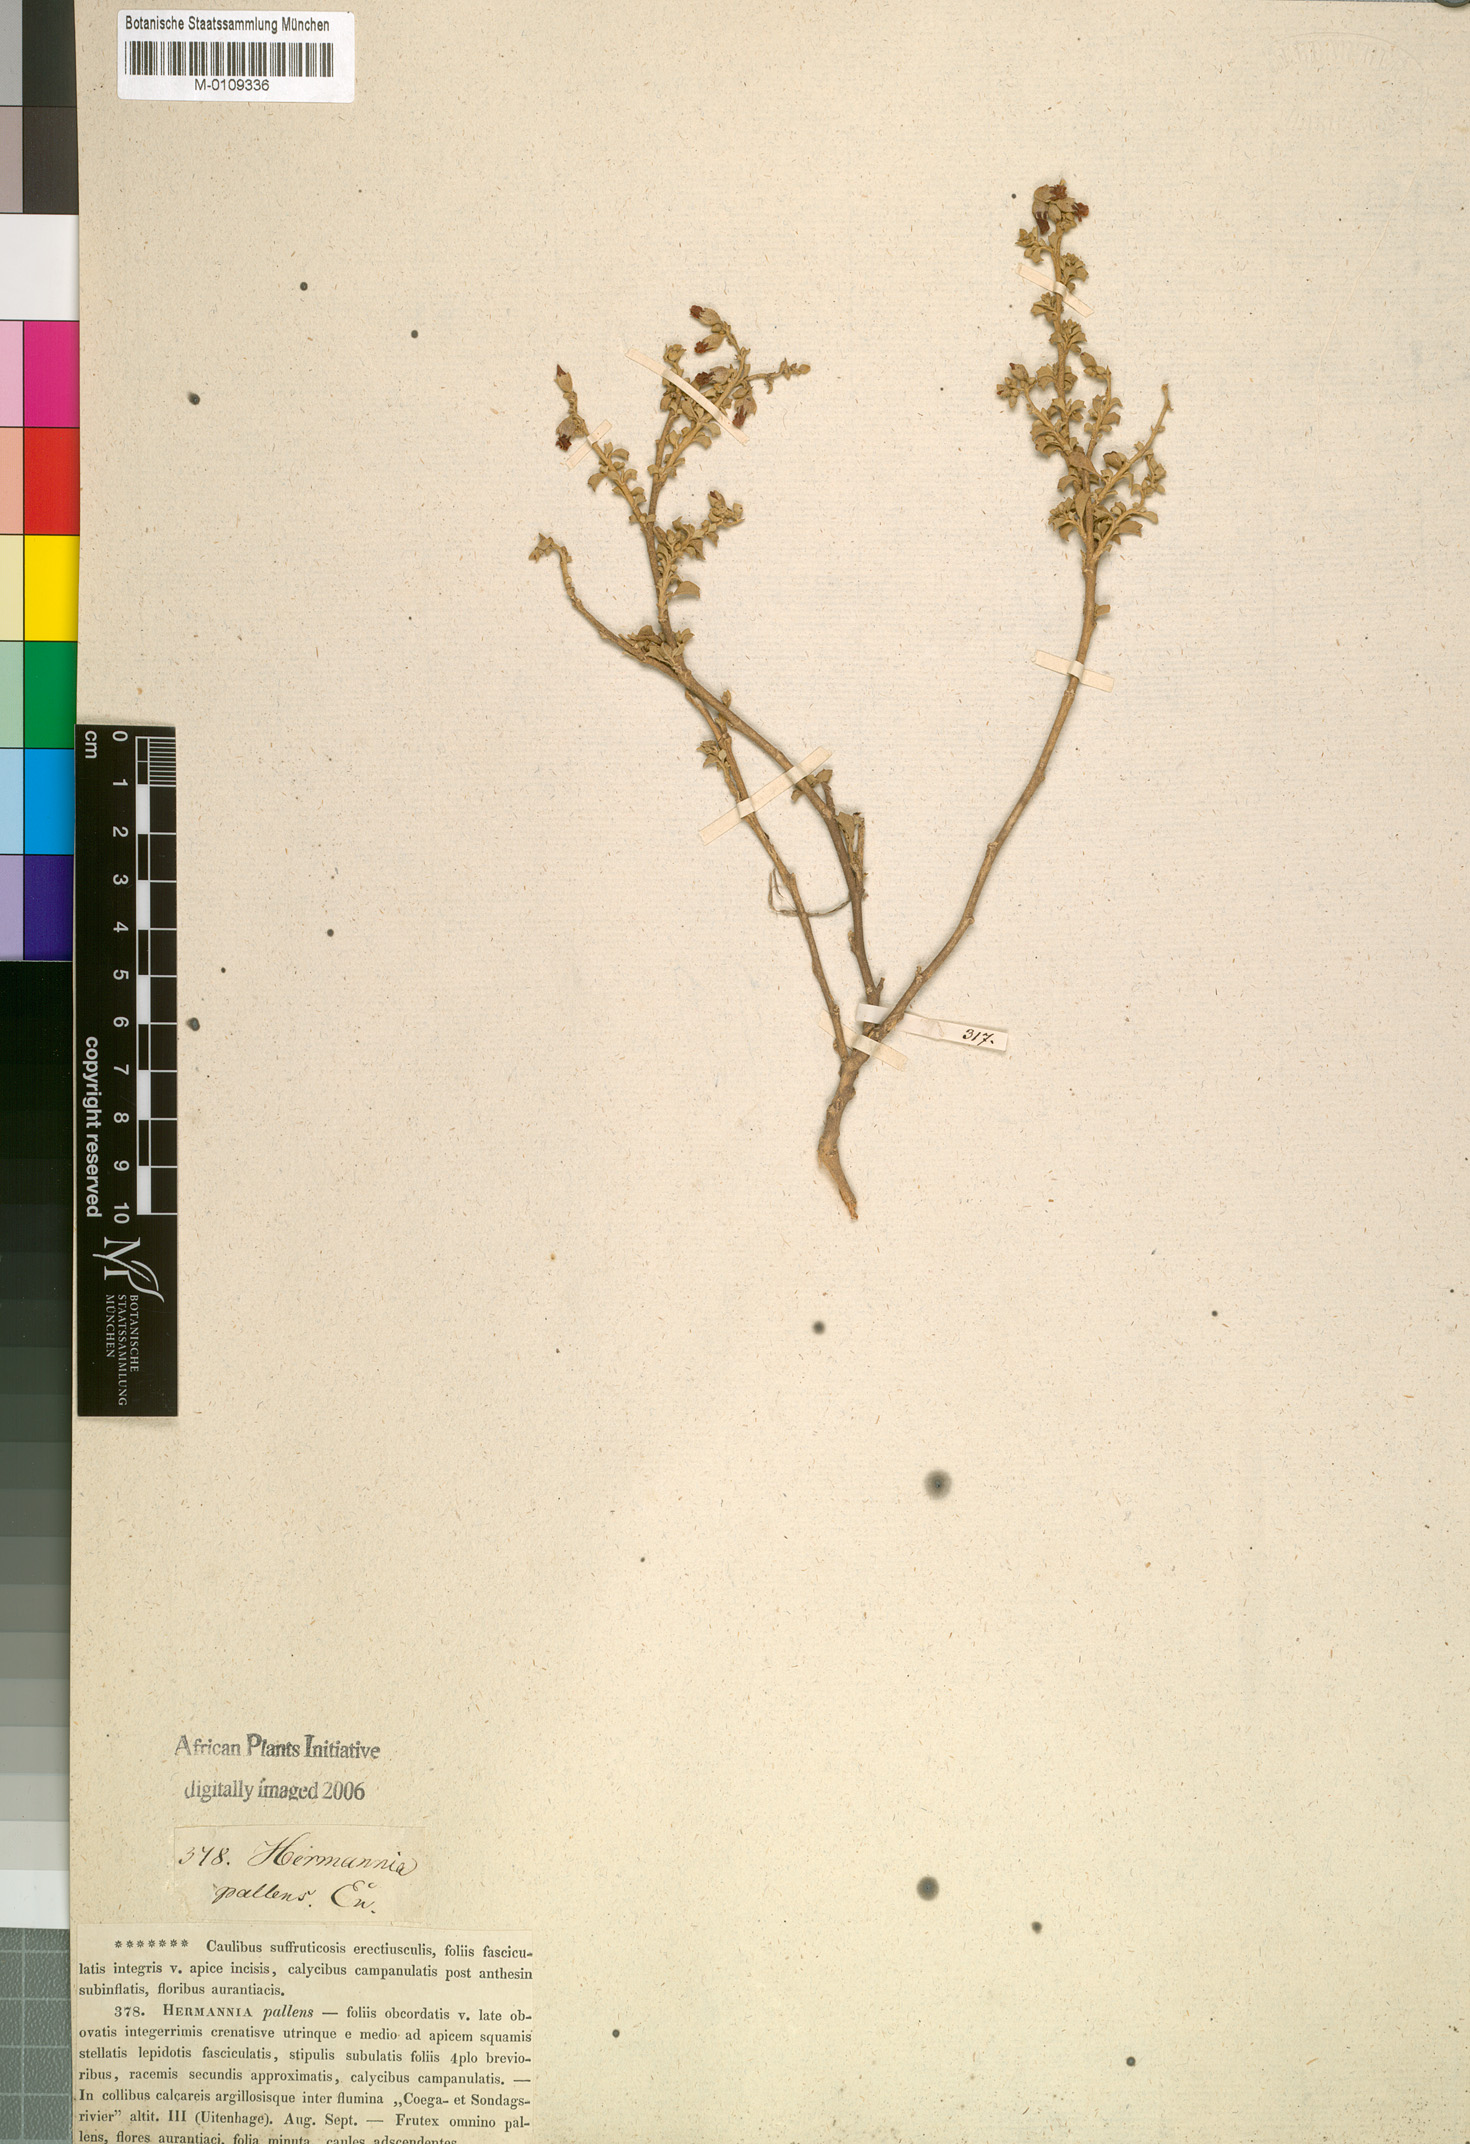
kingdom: Plantae
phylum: Tracheophyta
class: Magnoliopsida
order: Malvales
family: Malvaceae
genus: Hermannia
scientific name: Hermannia cuneifolia
